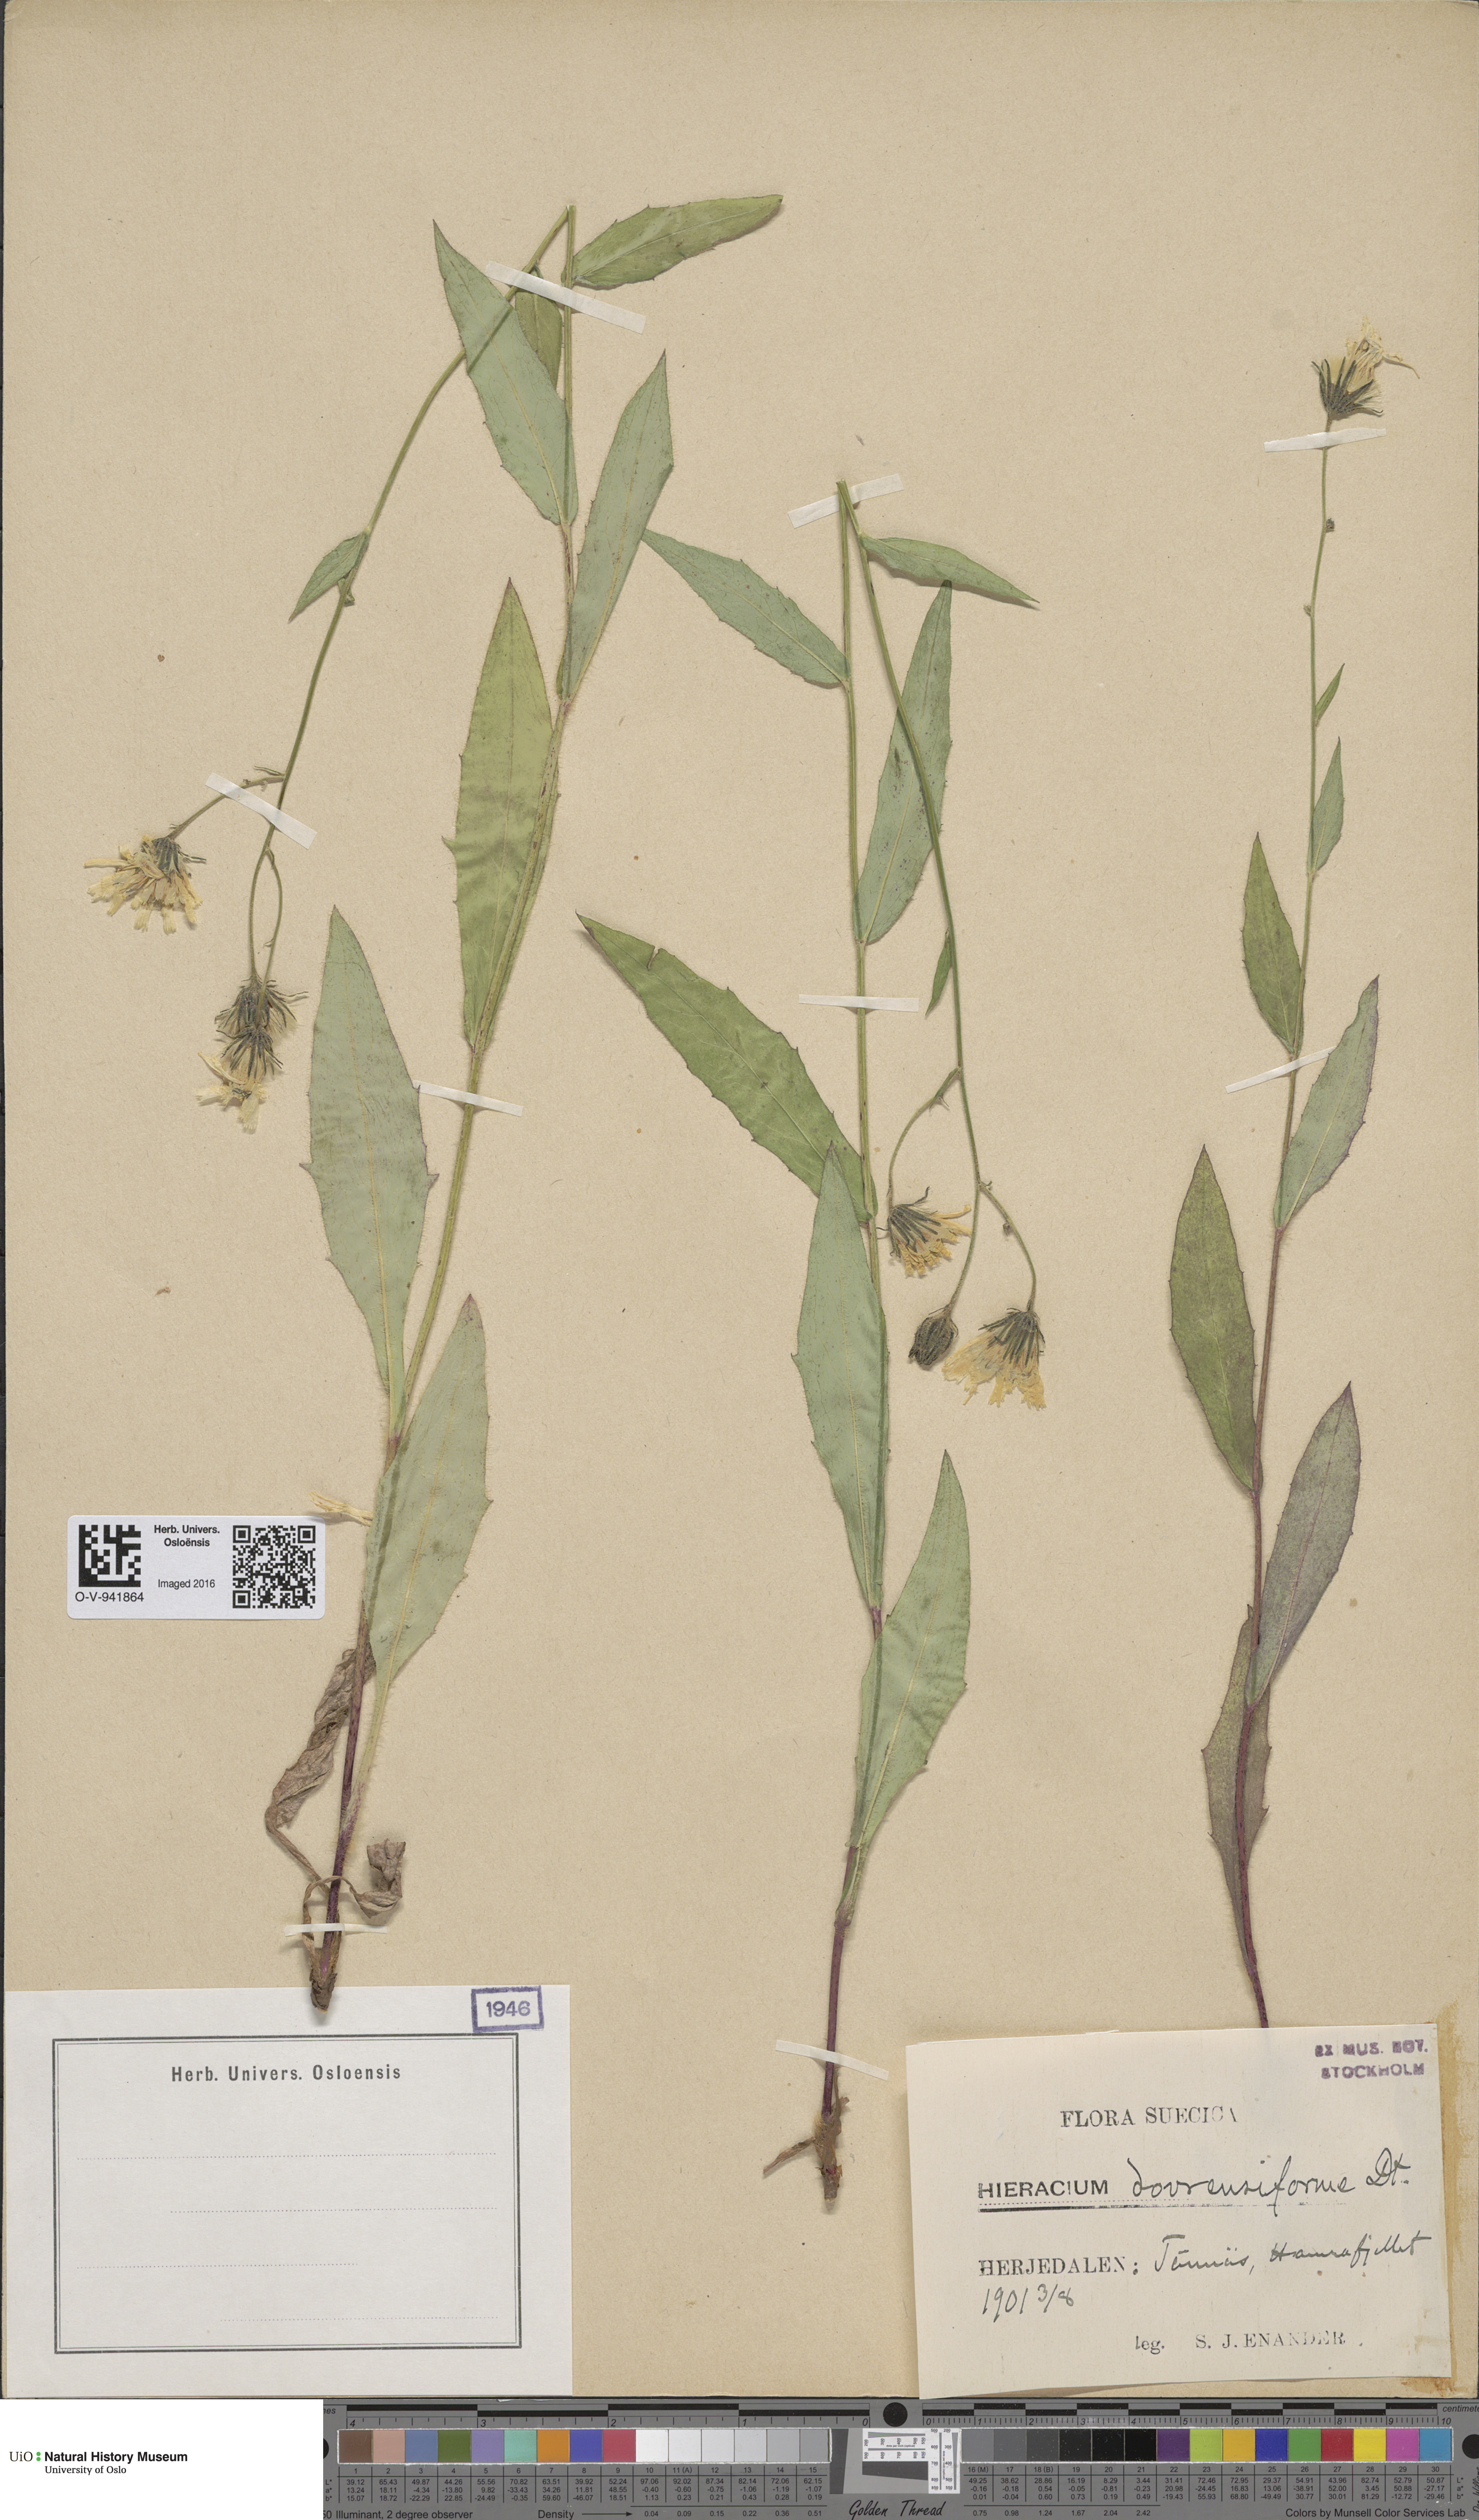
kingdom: Plantae
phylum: Tracheophyta
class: Magnoliopsida
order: Asterales
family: Asteraceae
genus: Hieracium
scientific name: Hieracium
